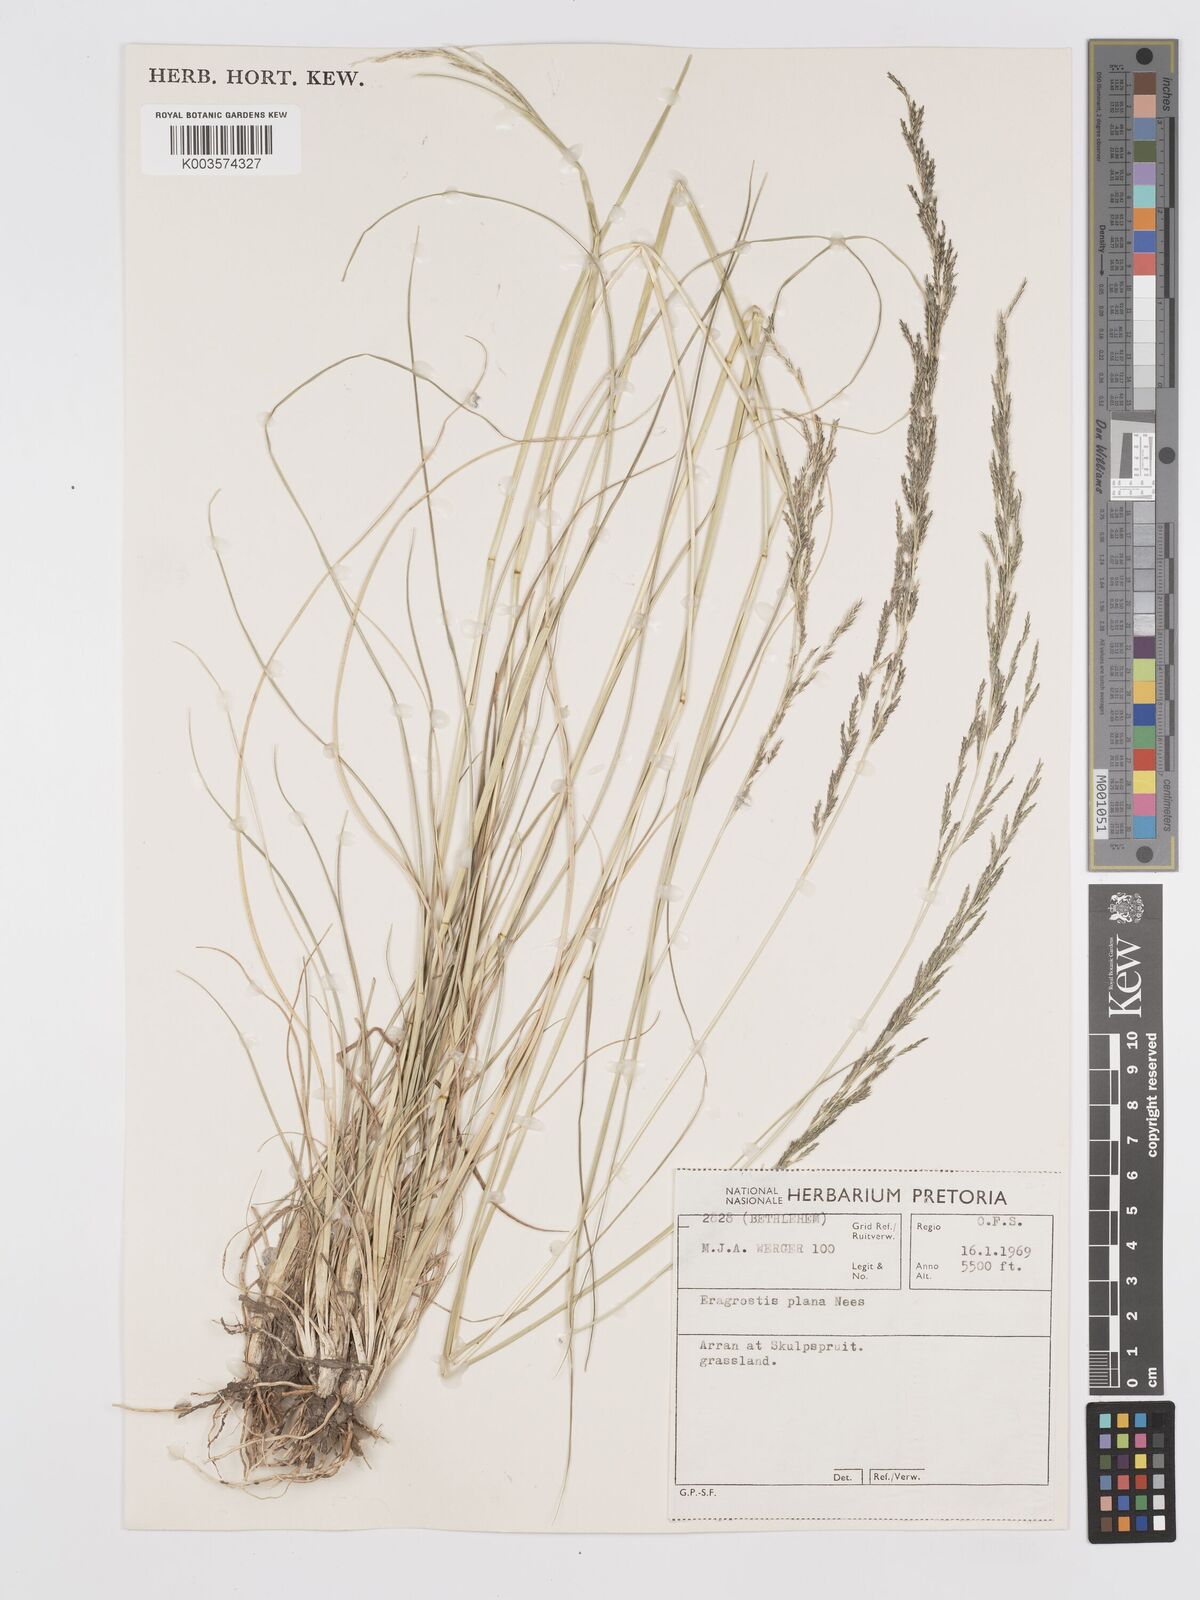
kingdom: Plantae
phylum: Tracheophyta
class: Liliopsida
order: Poales
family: Poaceae
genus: Eragrostis
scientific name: Eragrostis plana
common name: South african lovegrass
